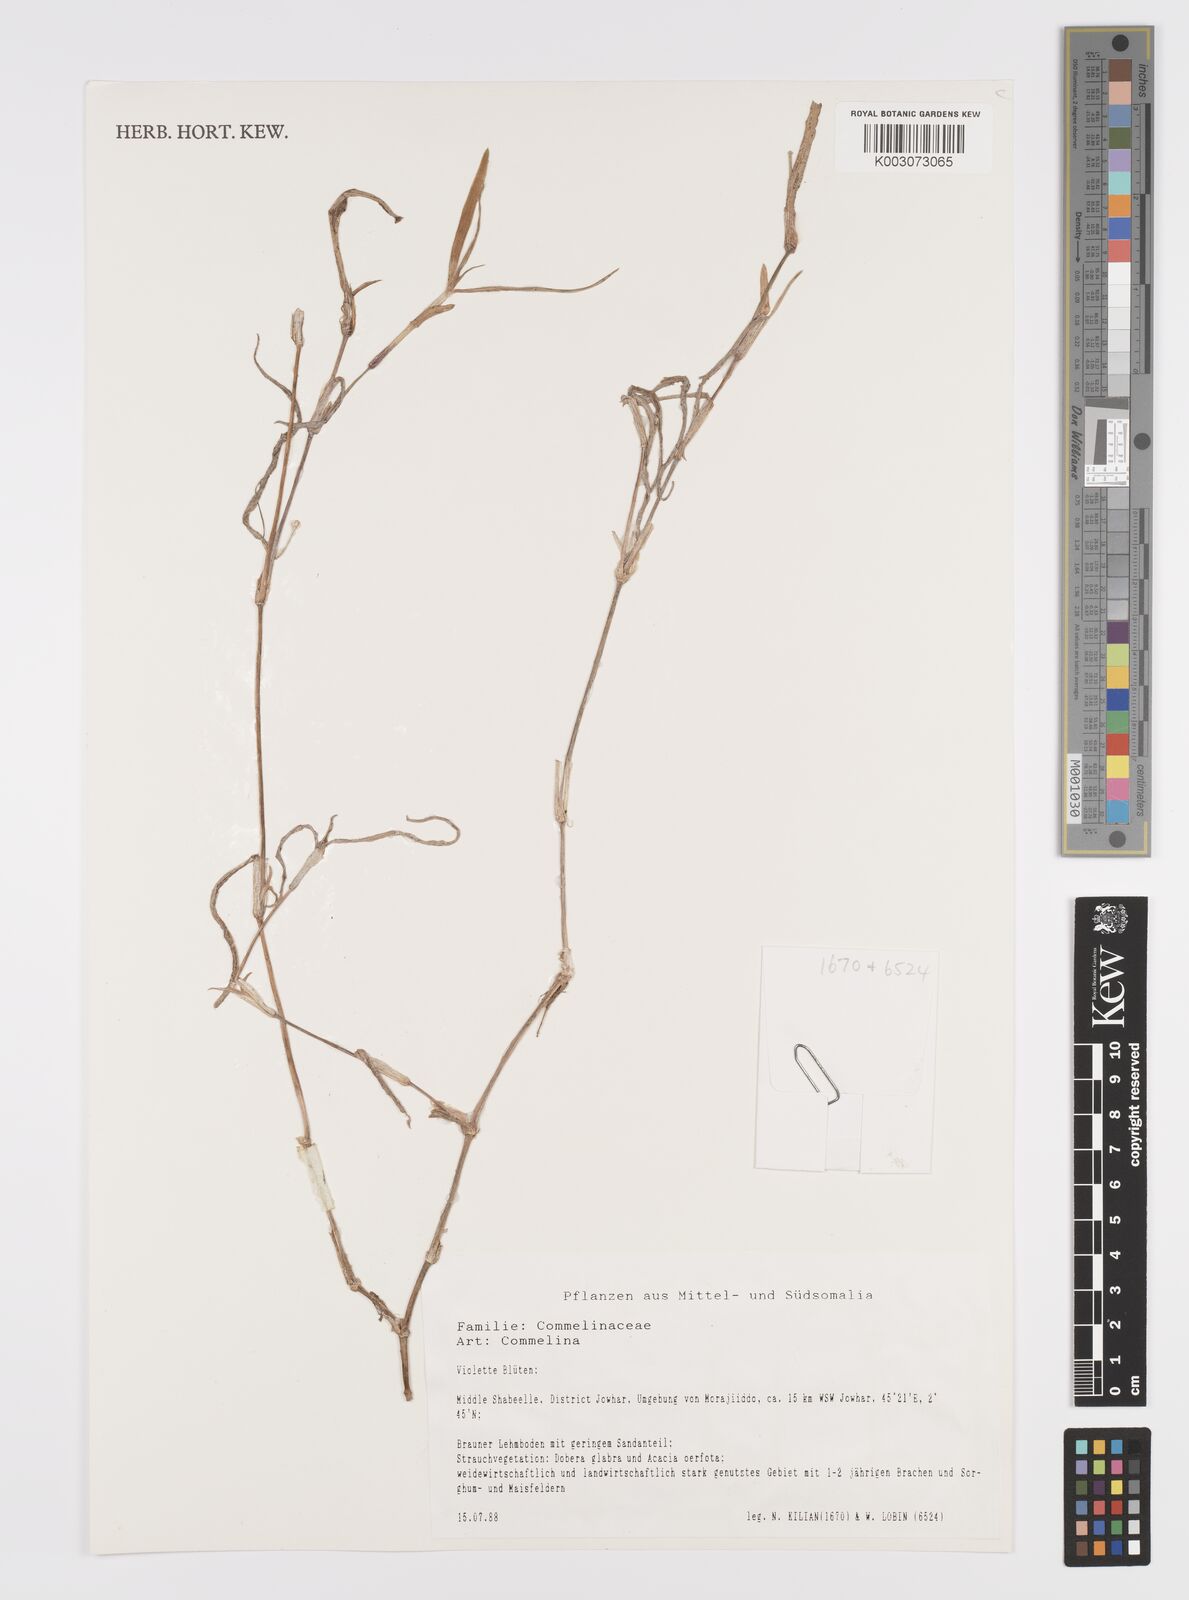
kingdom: Plantae
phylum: Tracheophyta
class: Liliopsida
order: Commelinales
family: Commelinaceae
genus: Commelina
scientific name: Commelina
